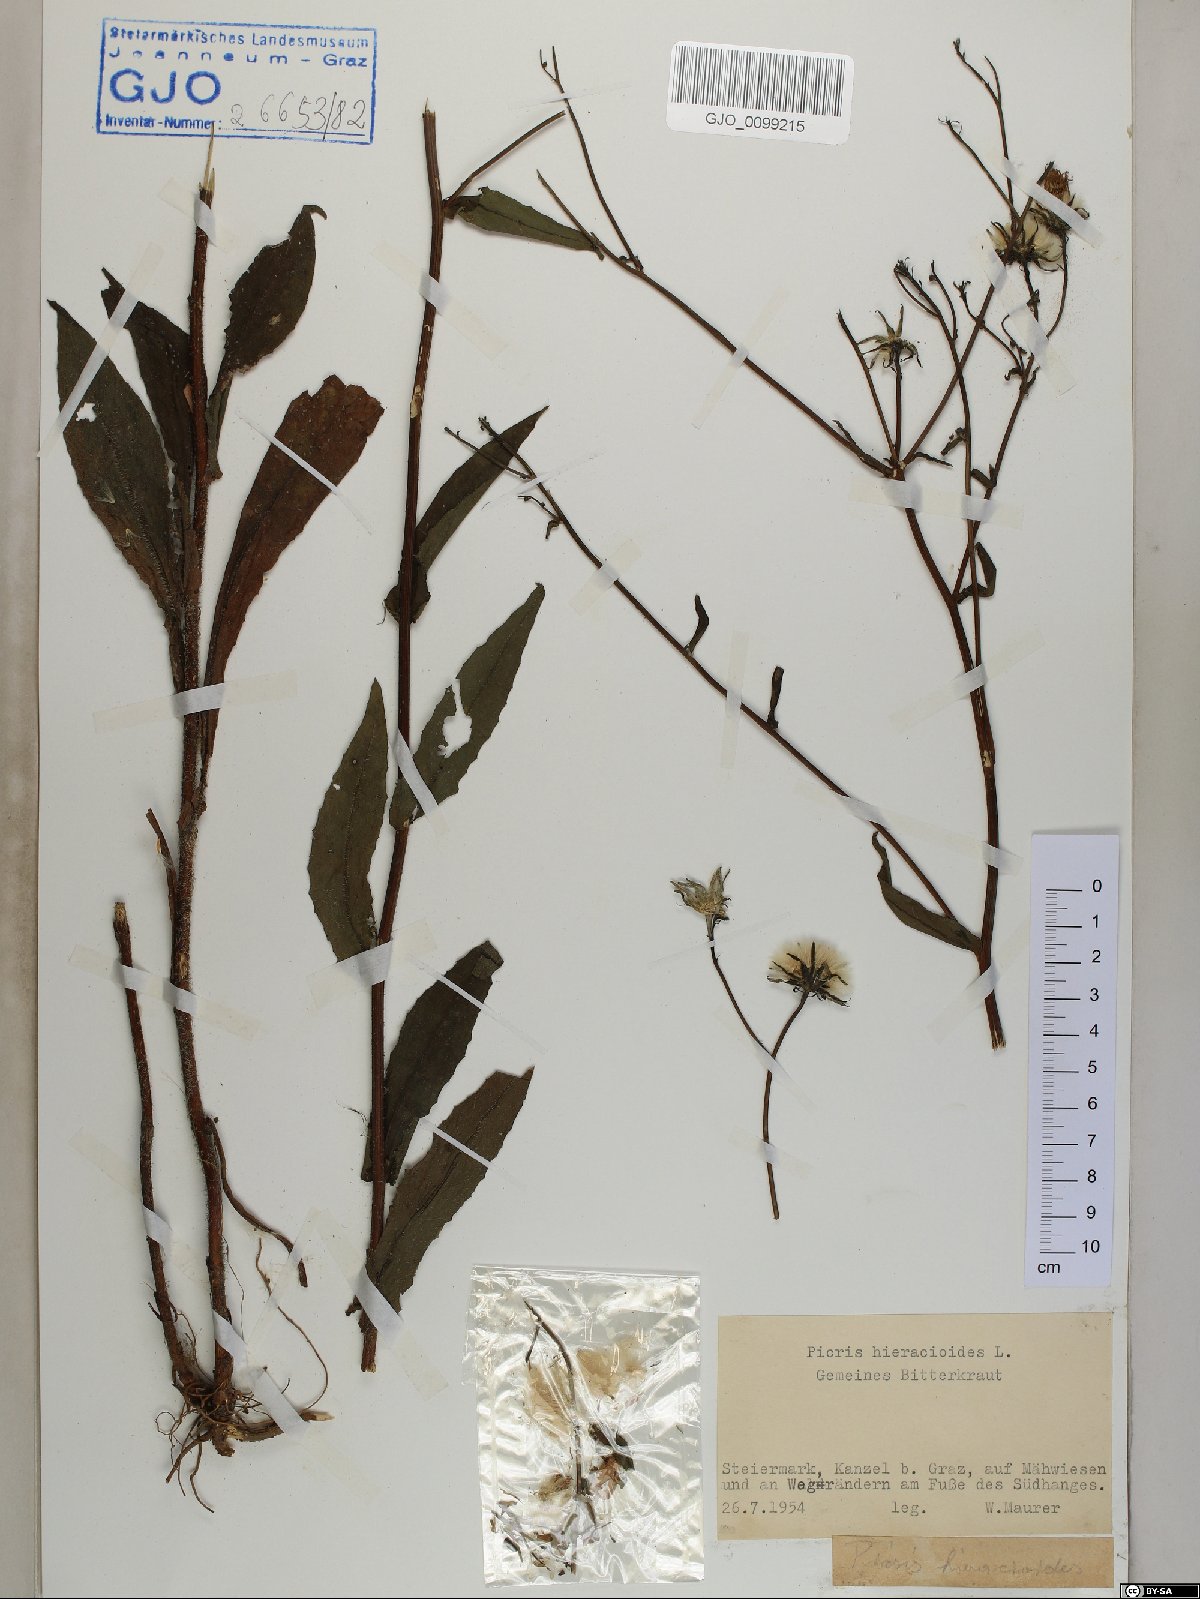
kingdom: Plantae
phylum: Tracheophyta
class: Magnoliopsida
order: Asterales
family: Asteraceae
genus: Picris
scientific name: Picris hieracioides
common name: Hawkweed oxtongue
